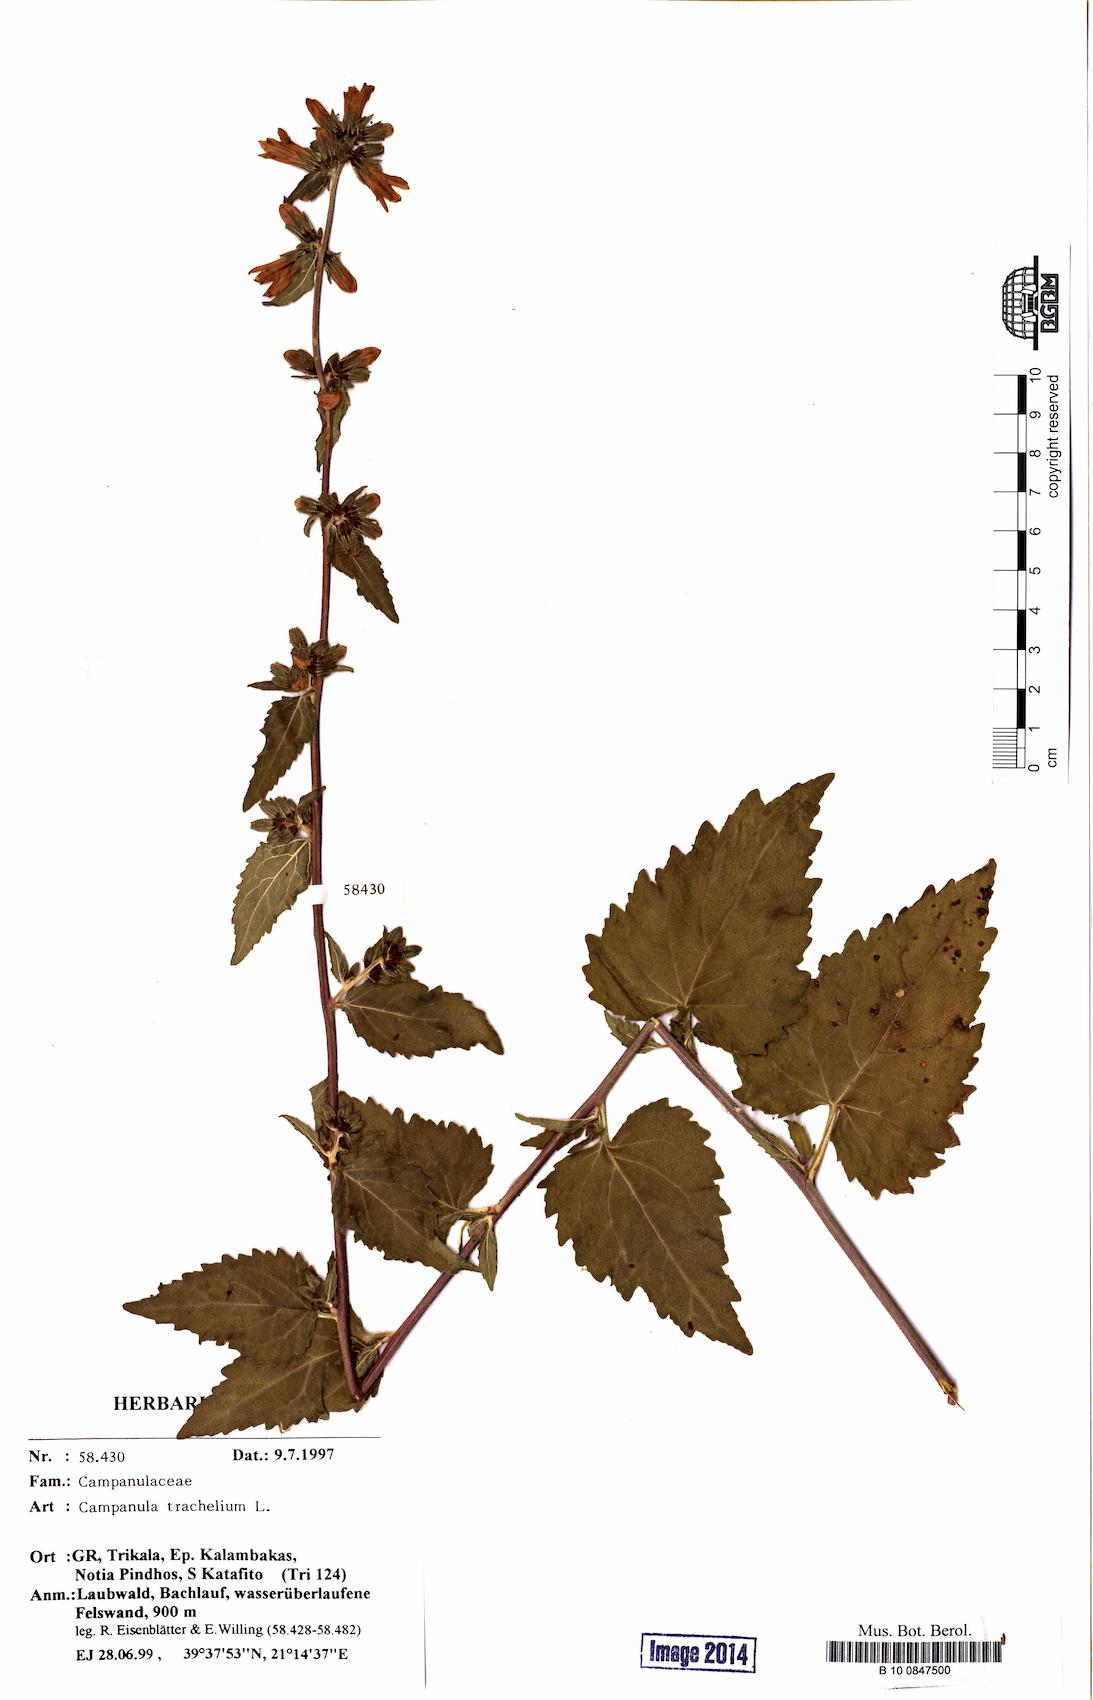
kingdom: Plantae
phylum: Tracheophyta
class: Magnoliopsida
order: Asterales
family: Campanulaceae
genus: Campanula
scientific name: Campanula trachelium
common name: Nettle-leaved bellflower
